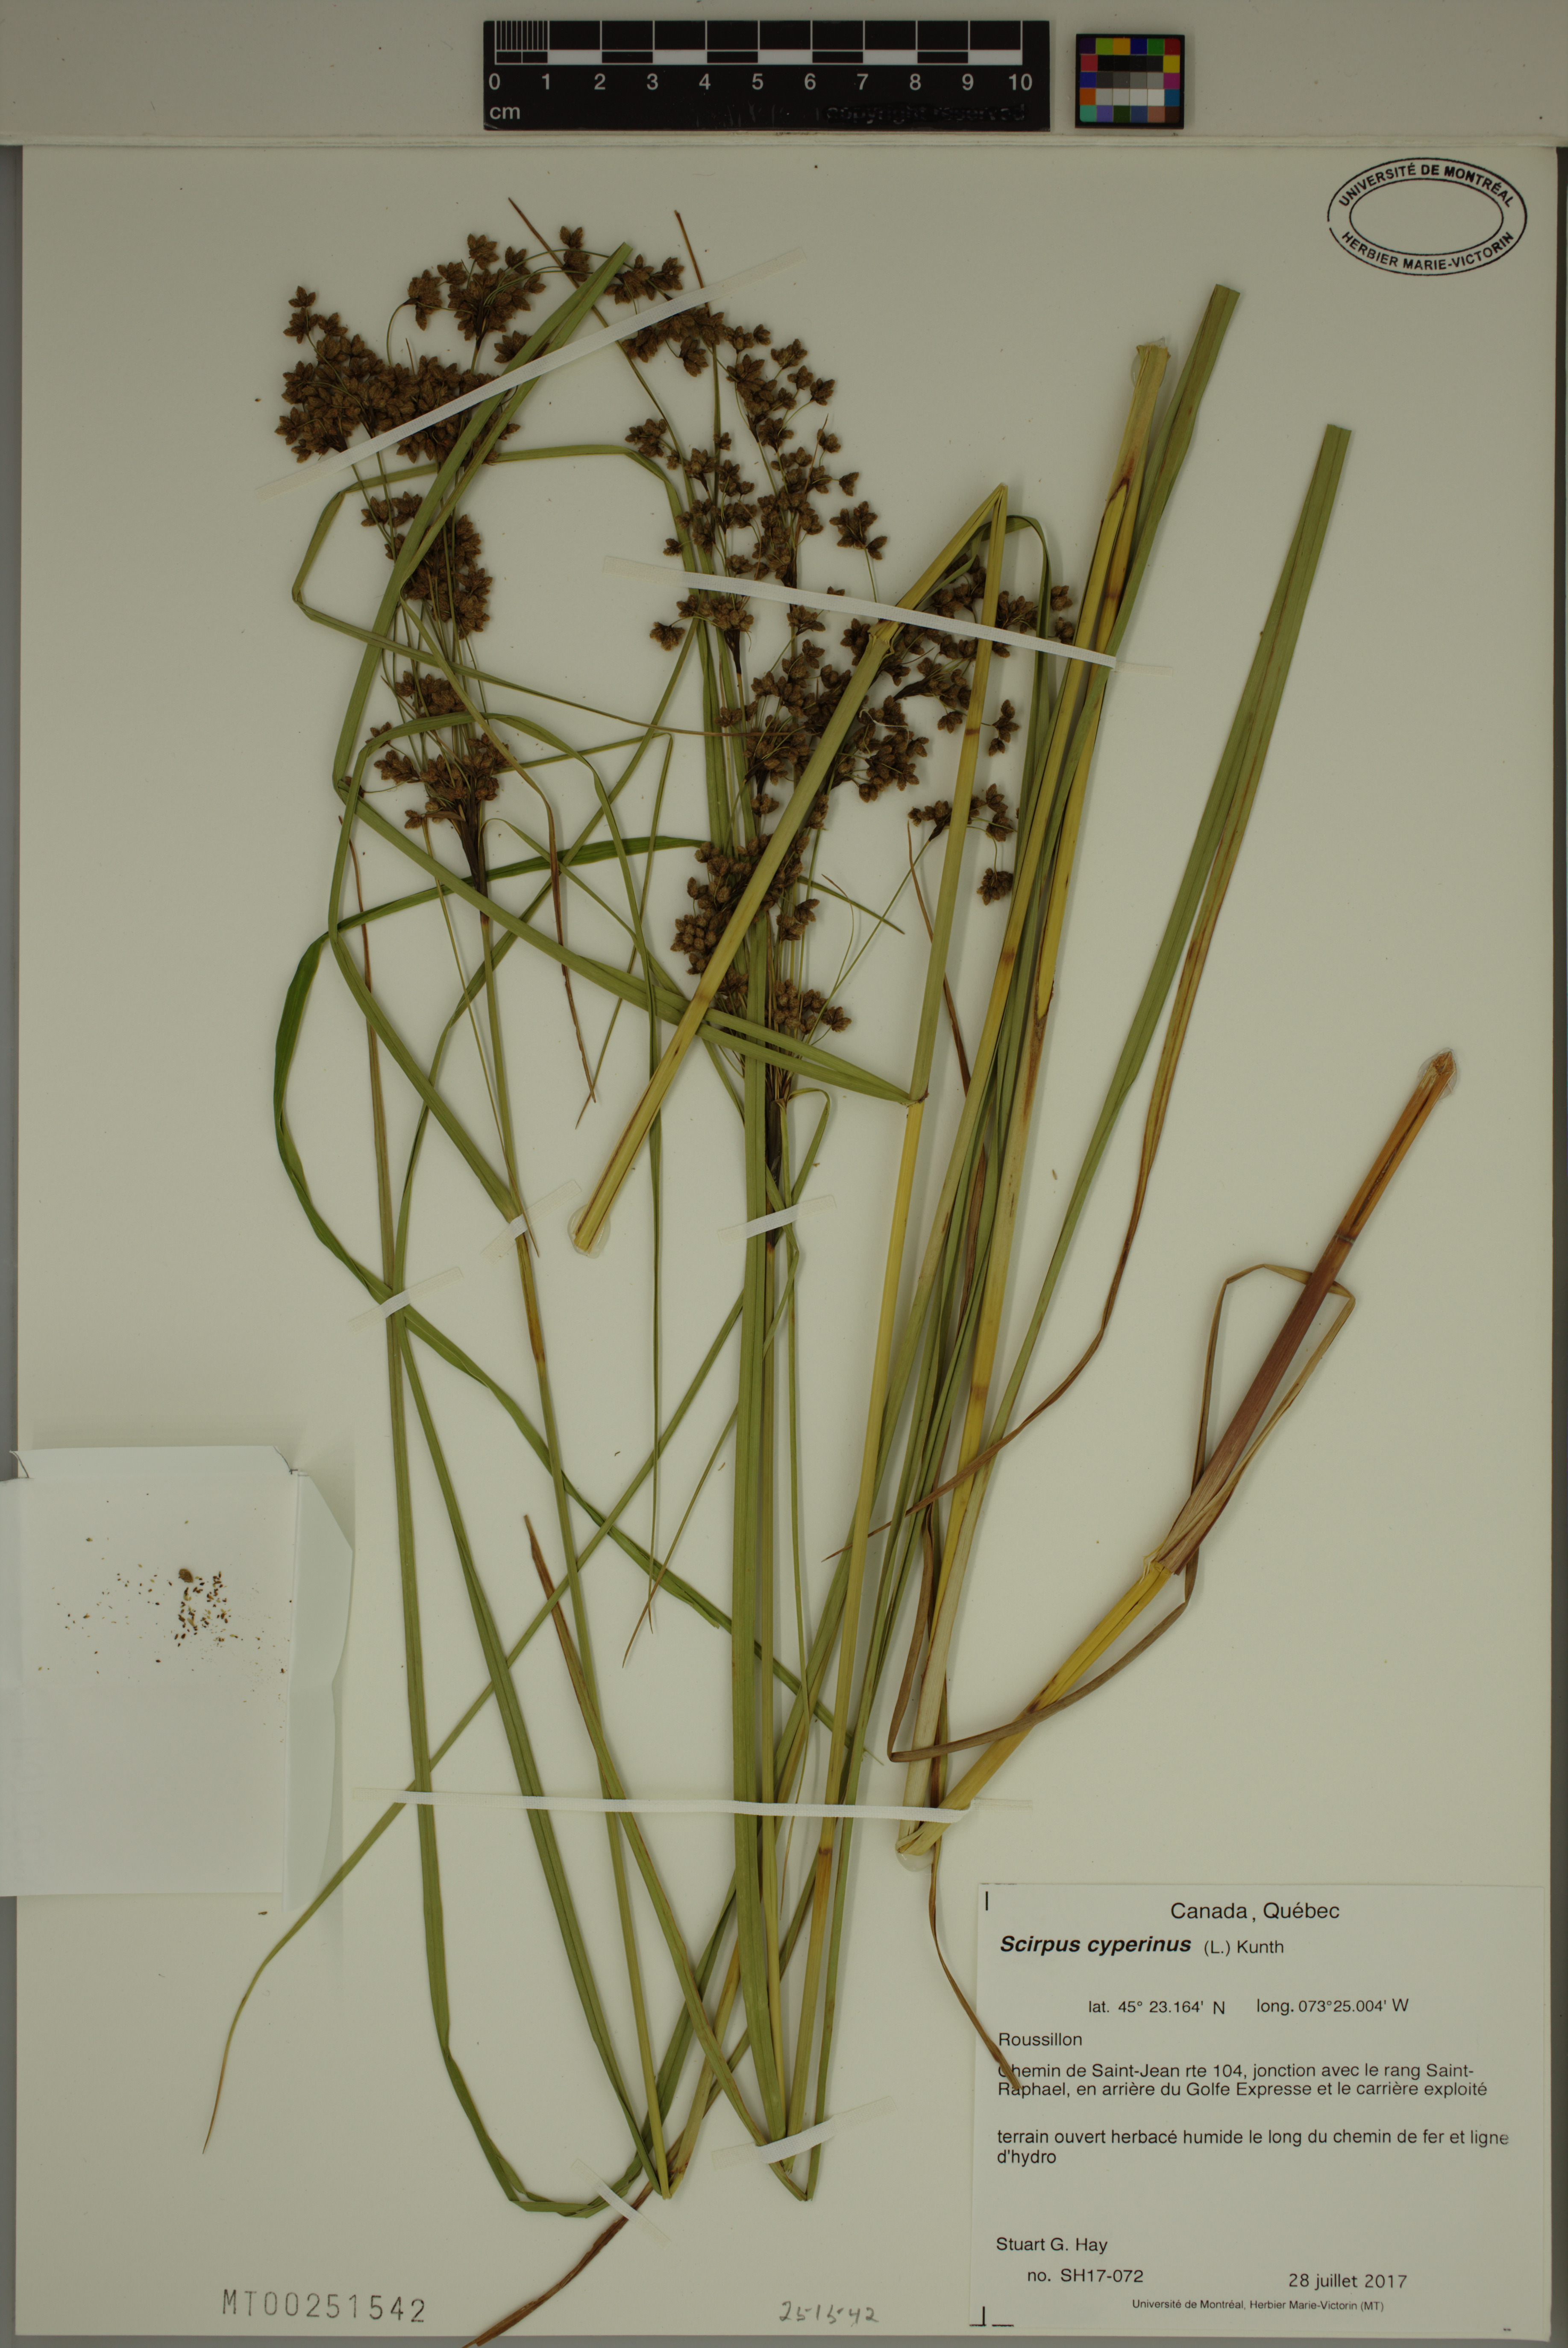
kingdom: Plantae
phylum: Tracheophyta
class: Liliopsida
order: Poales
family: Cyperaceae
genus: Scirpus
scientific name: Scirpus cyperinus
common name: Black-sheathed bulrush
